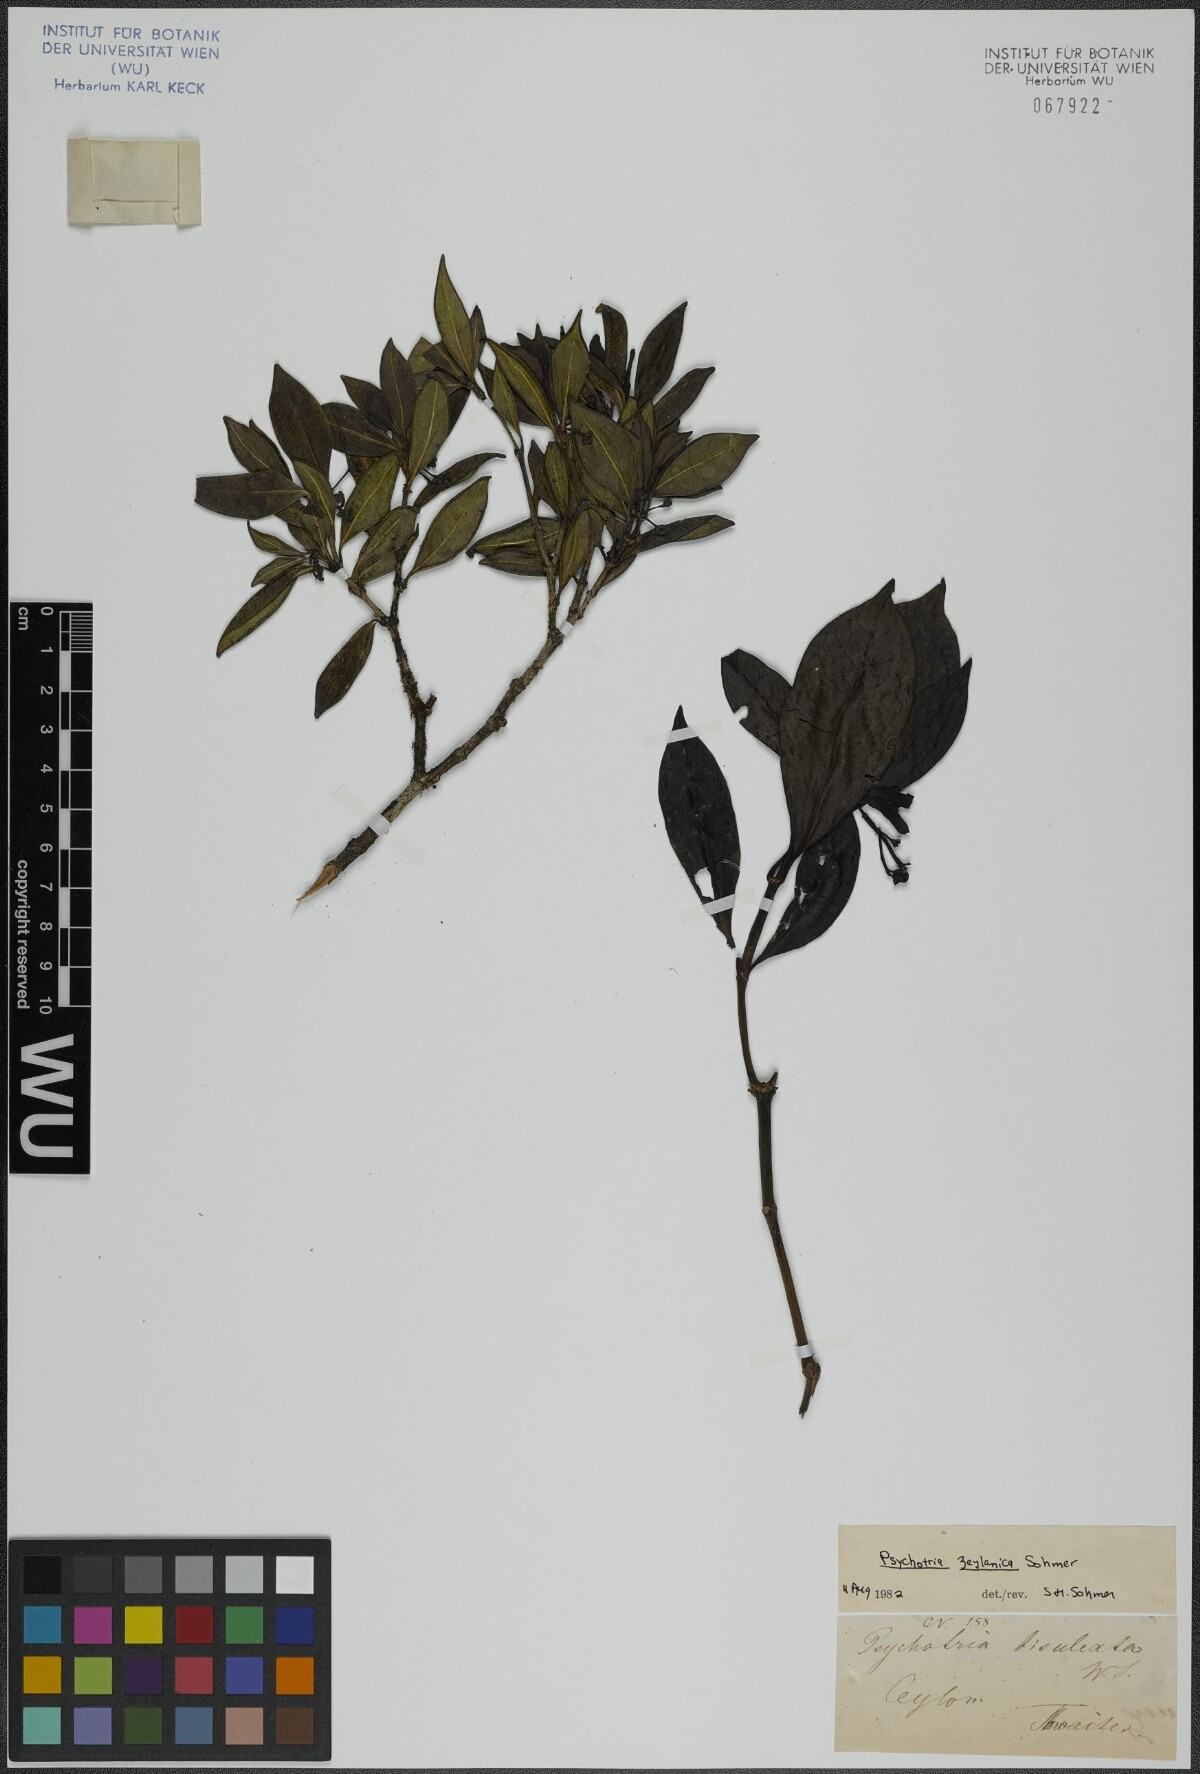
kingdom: Plantae
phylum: Tracheophyta
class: Magnoliopsida
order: Gentianales
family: Rubiaceae
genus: Psychotria
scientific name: Psychotria zeylanica
